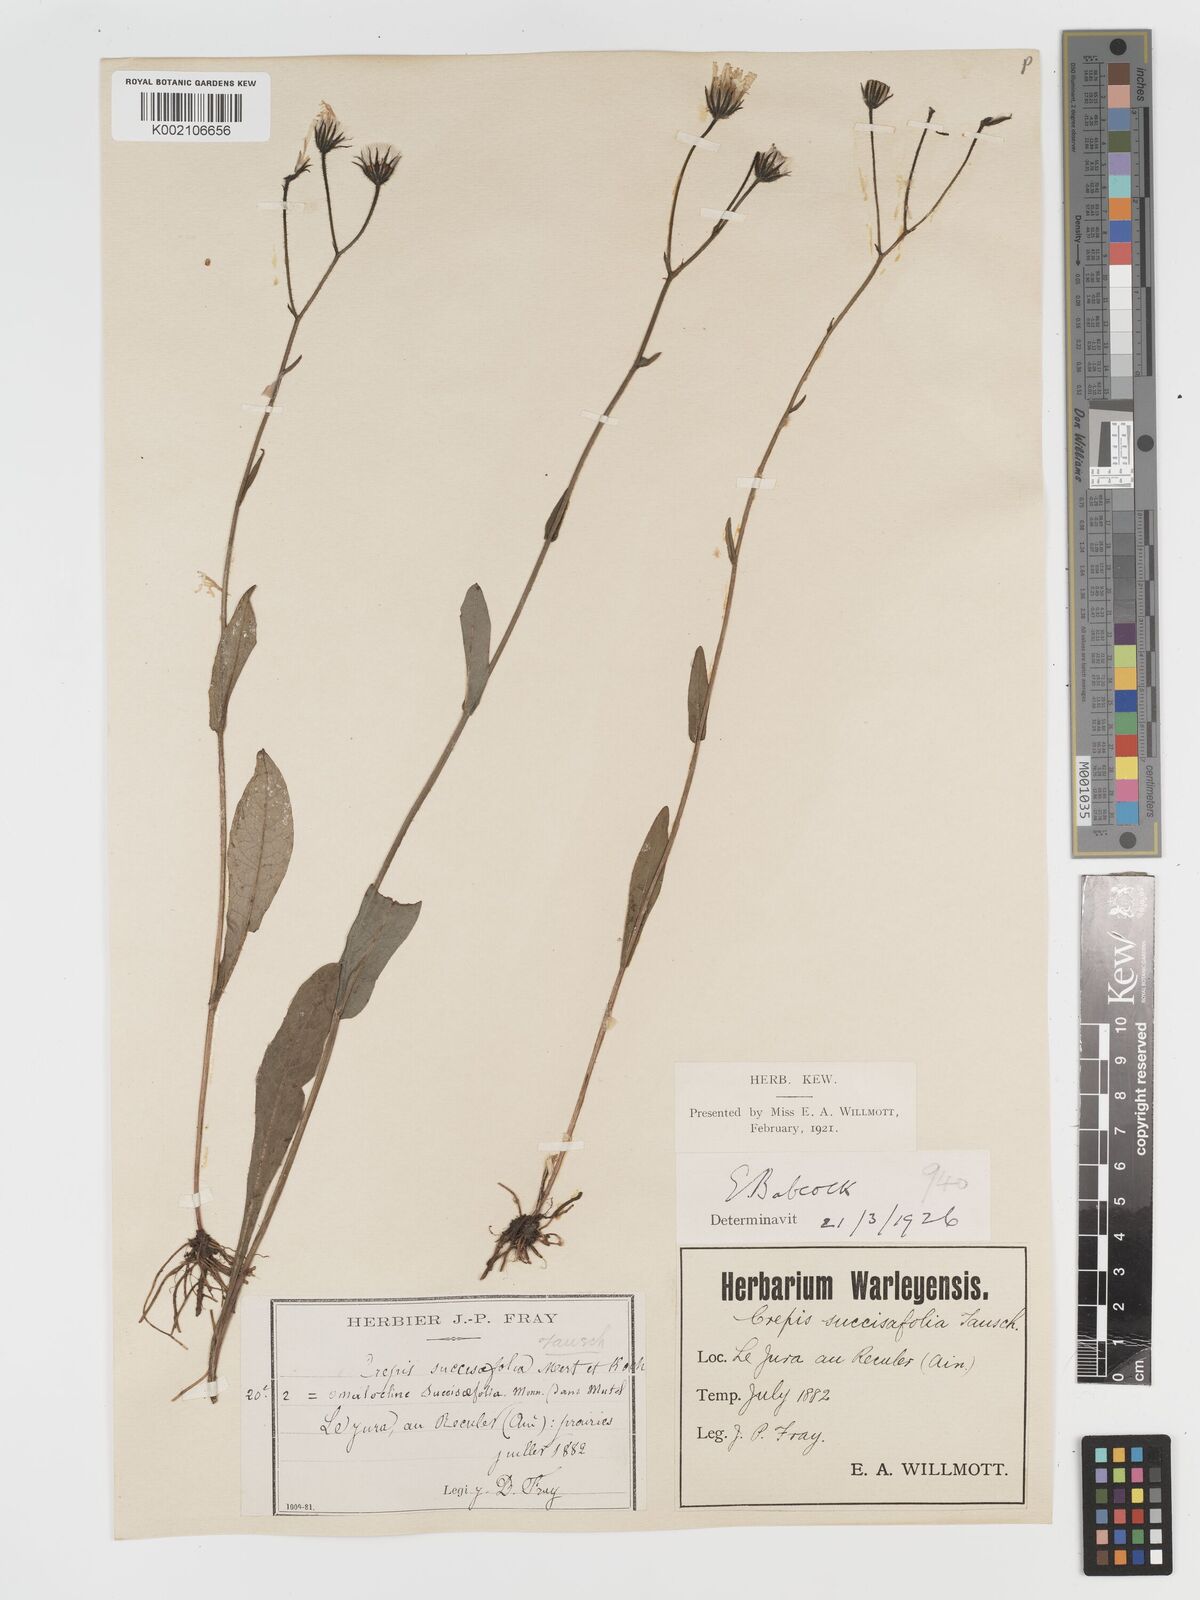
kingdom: Plantae
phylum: Tracheophyta
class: Magnoliopsida
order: Asterales
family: Asteraceae
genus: Crepis
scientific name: Crepis mollis
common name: Northern hawk's-beard
